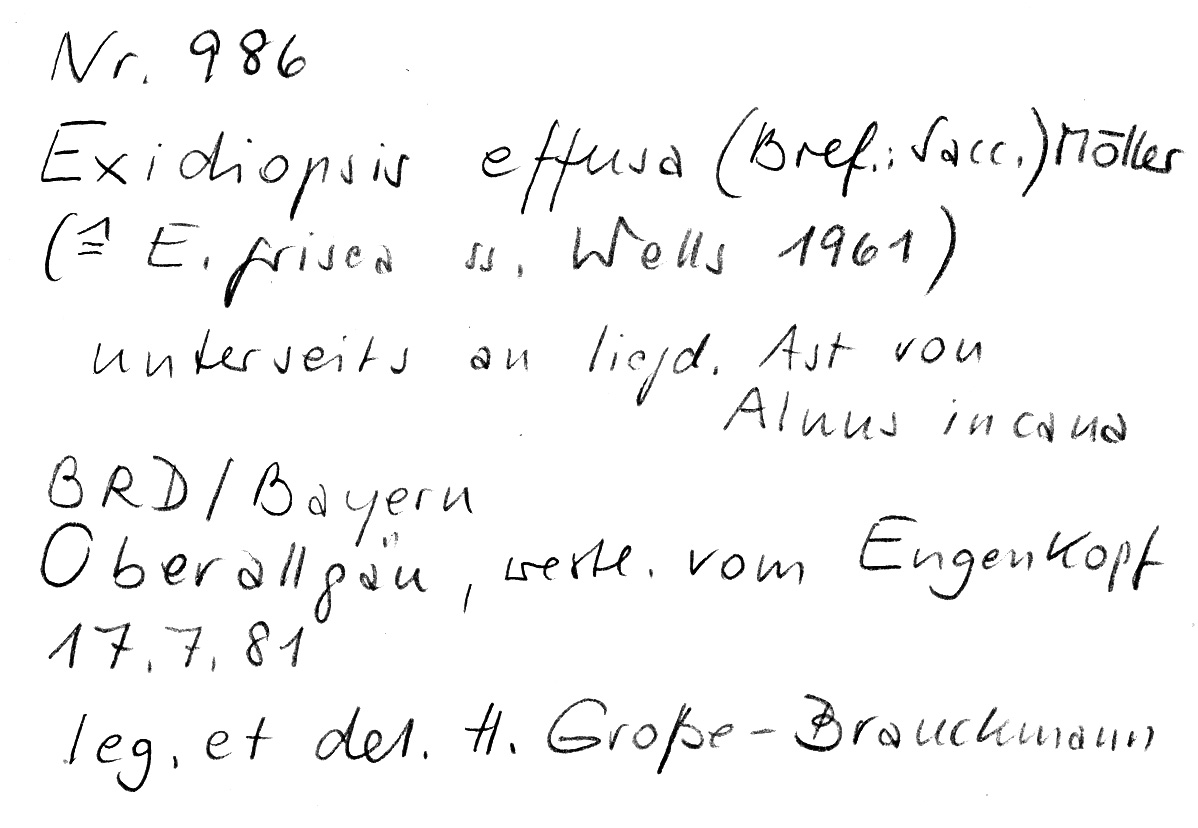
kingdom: Fungi
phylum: Basidiomycota
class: Agaricomycetes
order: Auriculariales
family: Auriculariaceae
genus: Exidiopsis
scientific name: Exidiopsis effusa
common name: Hair ice crust
